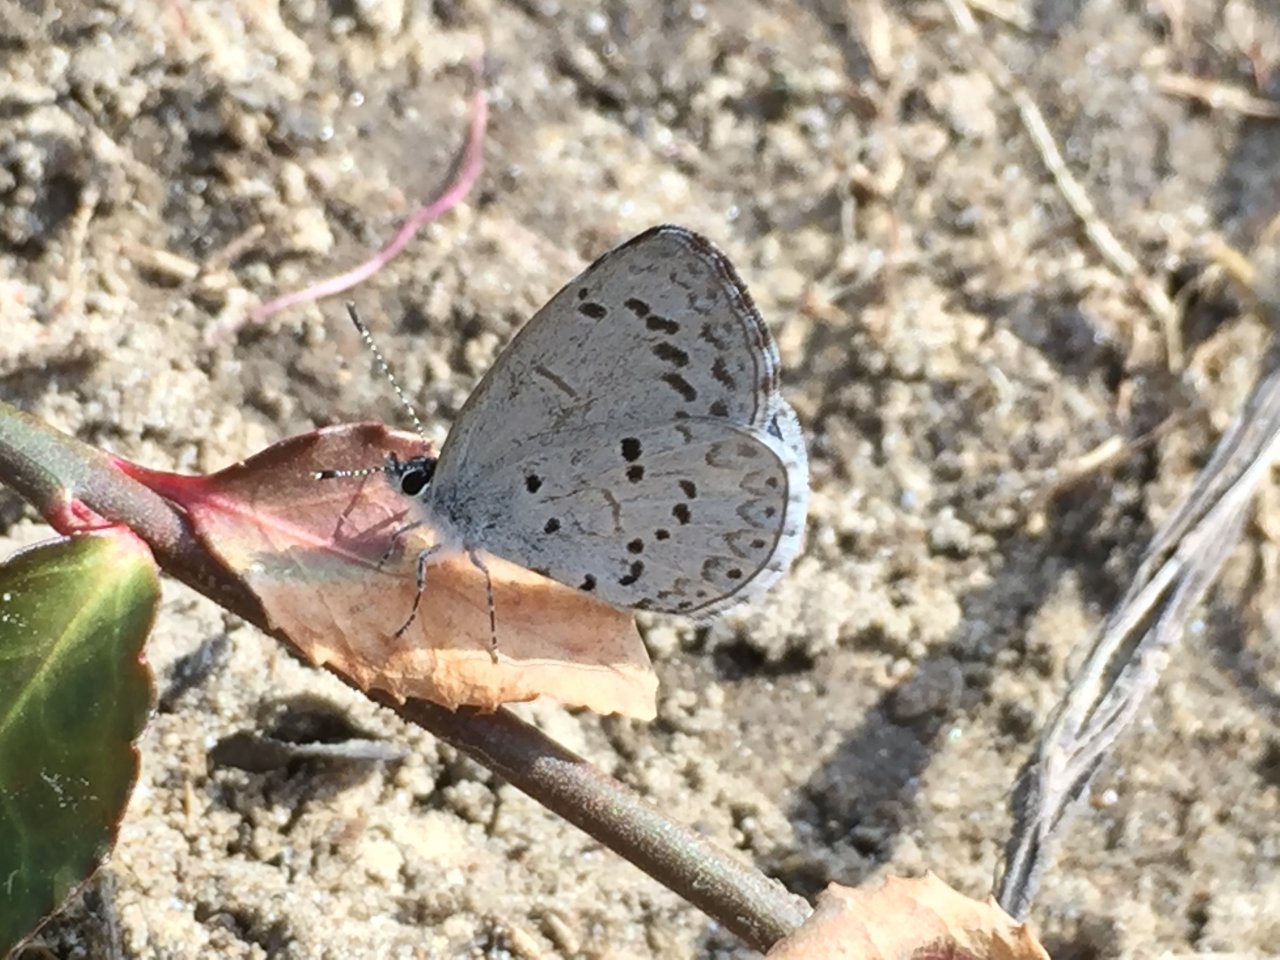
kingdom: Animalia
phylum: Arthropoda
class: Insecta
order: Lepidoptera
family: Lycaenidae
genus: Celastrina
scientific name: Celastrina ladon
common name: Spring Azure
